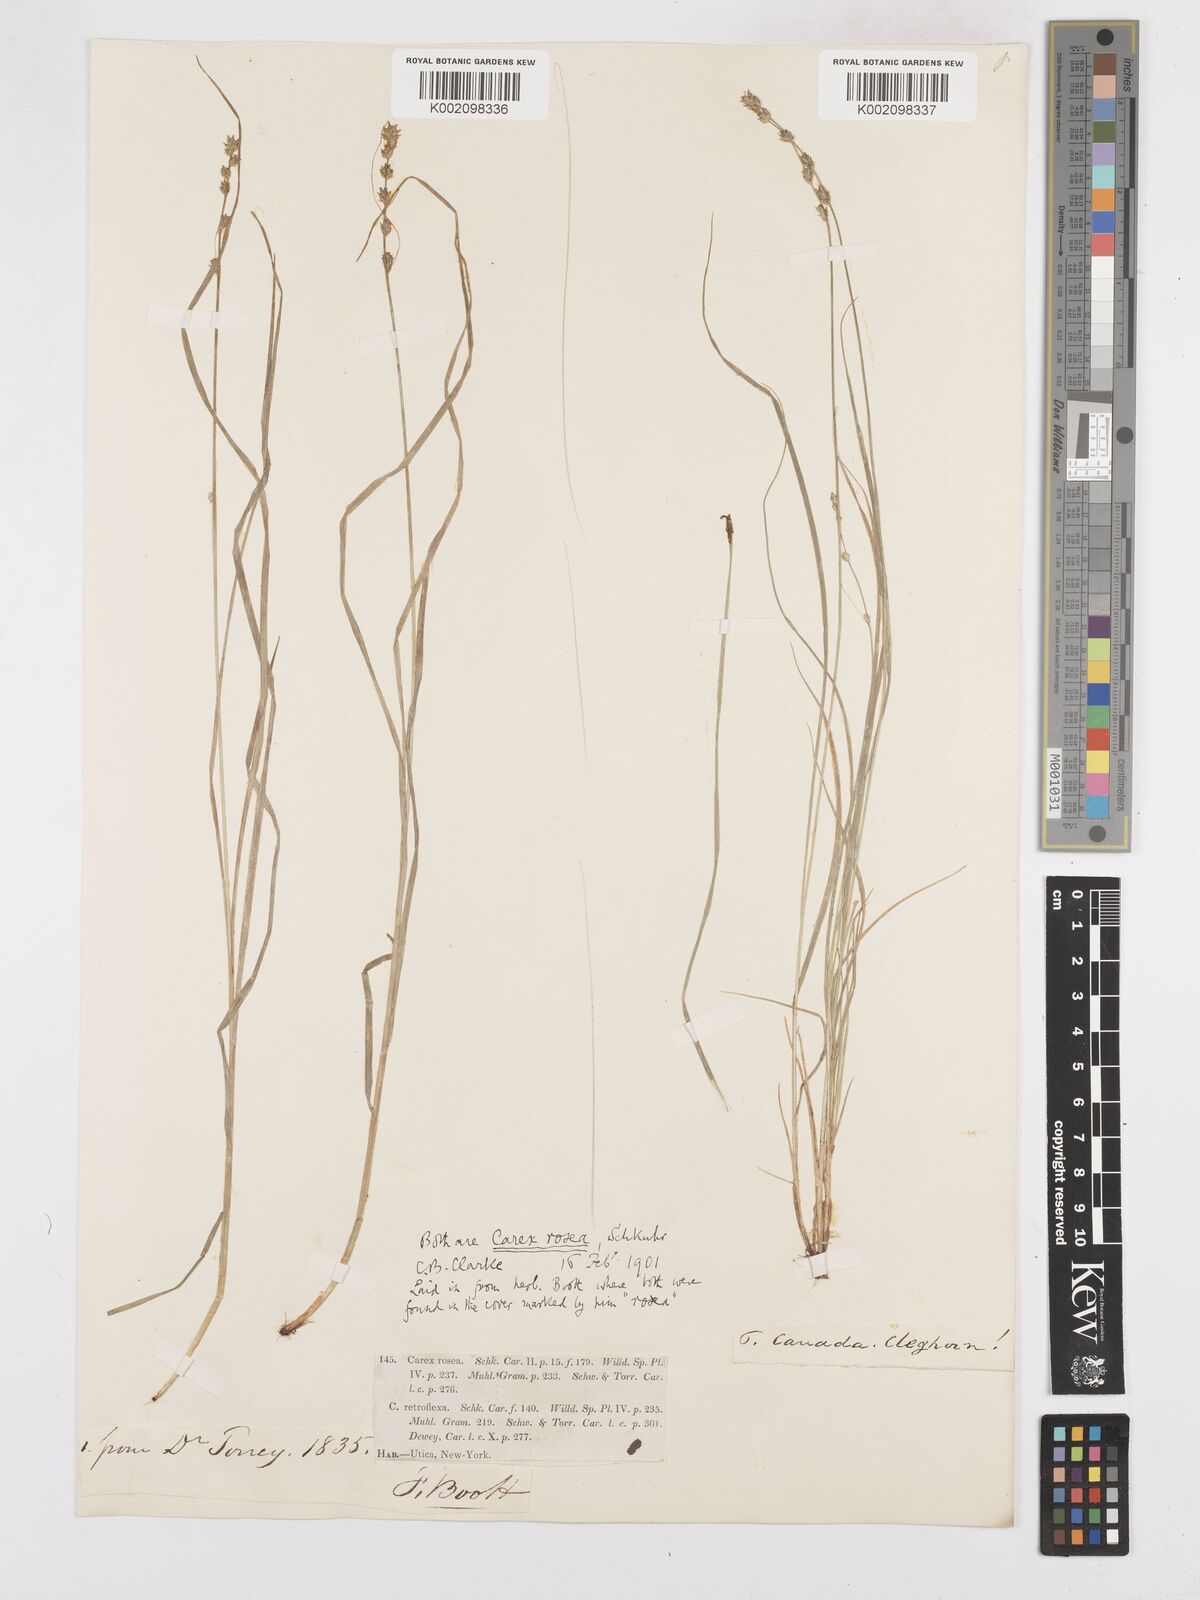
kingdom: Plantae
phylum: Tracheophyta
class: Liliopsida
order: Poales
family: Cyperaceae
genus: Carex
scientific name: Carex rosea
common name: Curly-styled wood sedge
